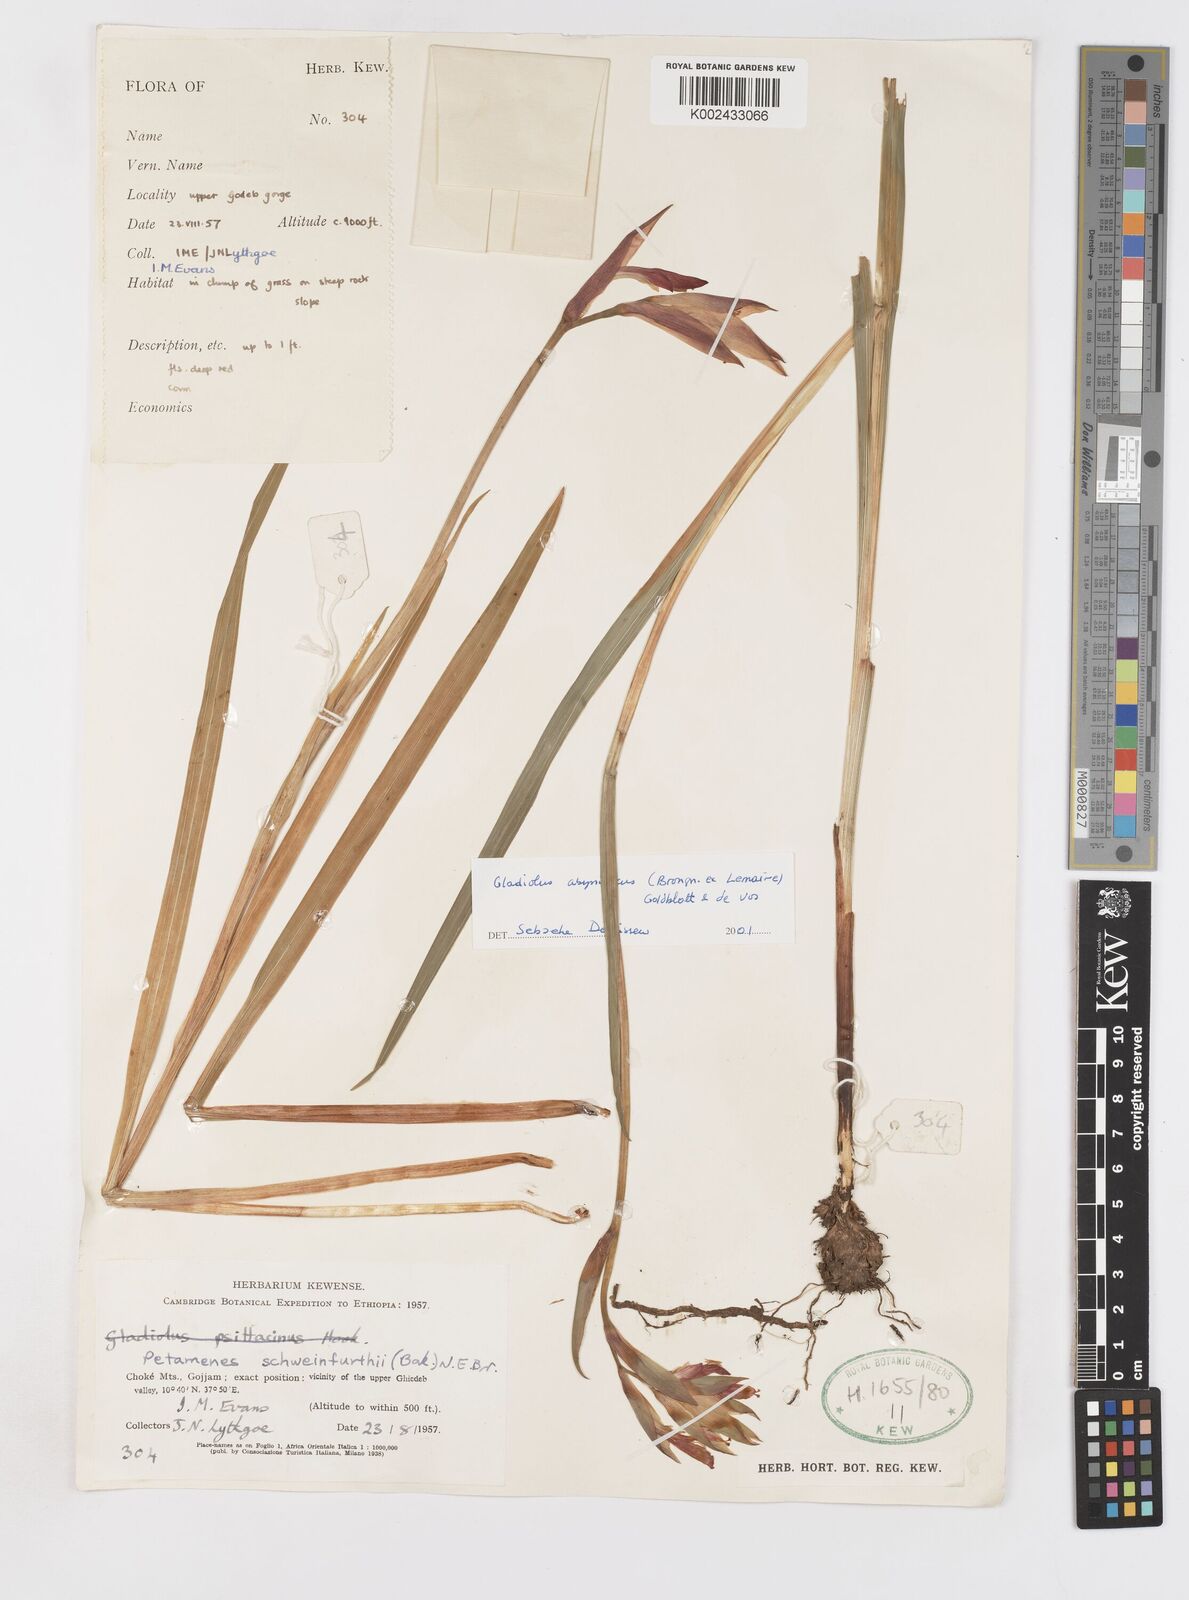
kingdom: Plantae
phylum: Tracheophyta
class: Liliopsida
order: Asparagales
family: Iridaceae
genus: Gladiolus
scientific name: Gladiolus abyssinicus
